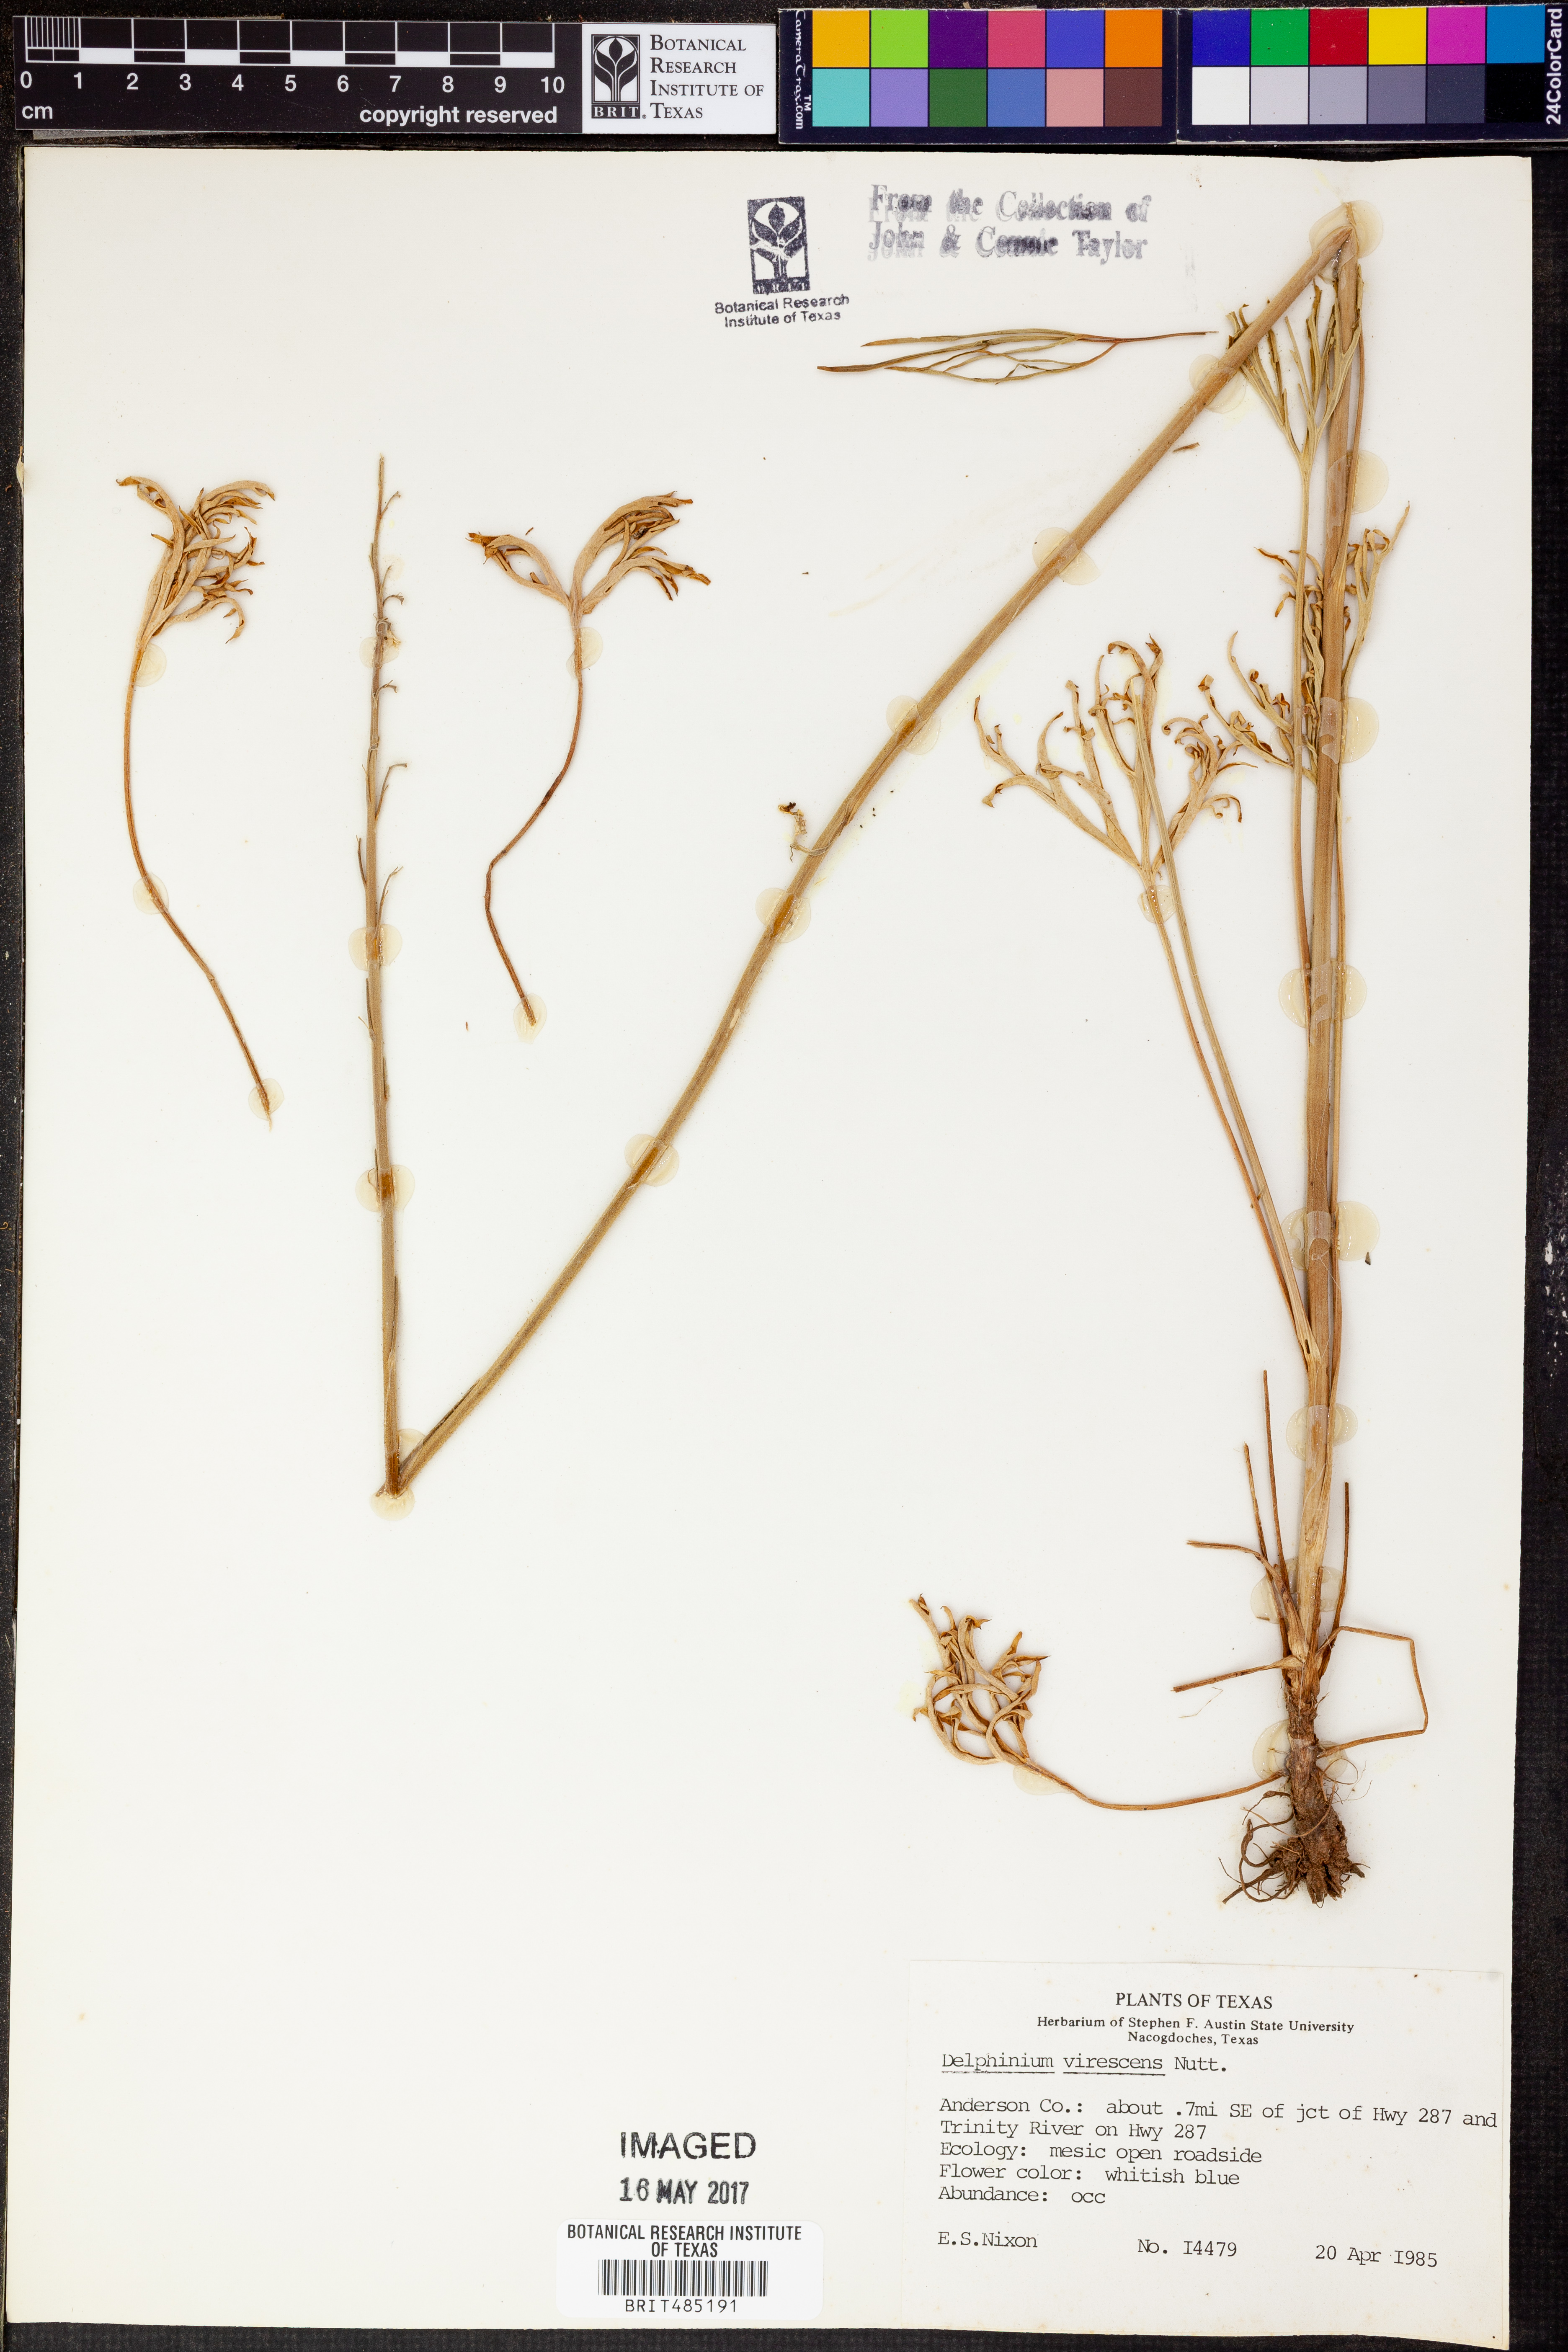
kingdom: Plantae
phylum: Tracheophyta
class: Magnoliopsida
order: Ranunculales
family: Ranunculaceae
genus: Delphinium
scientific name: Delphinium carolinianum
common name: Carolina larkspur
